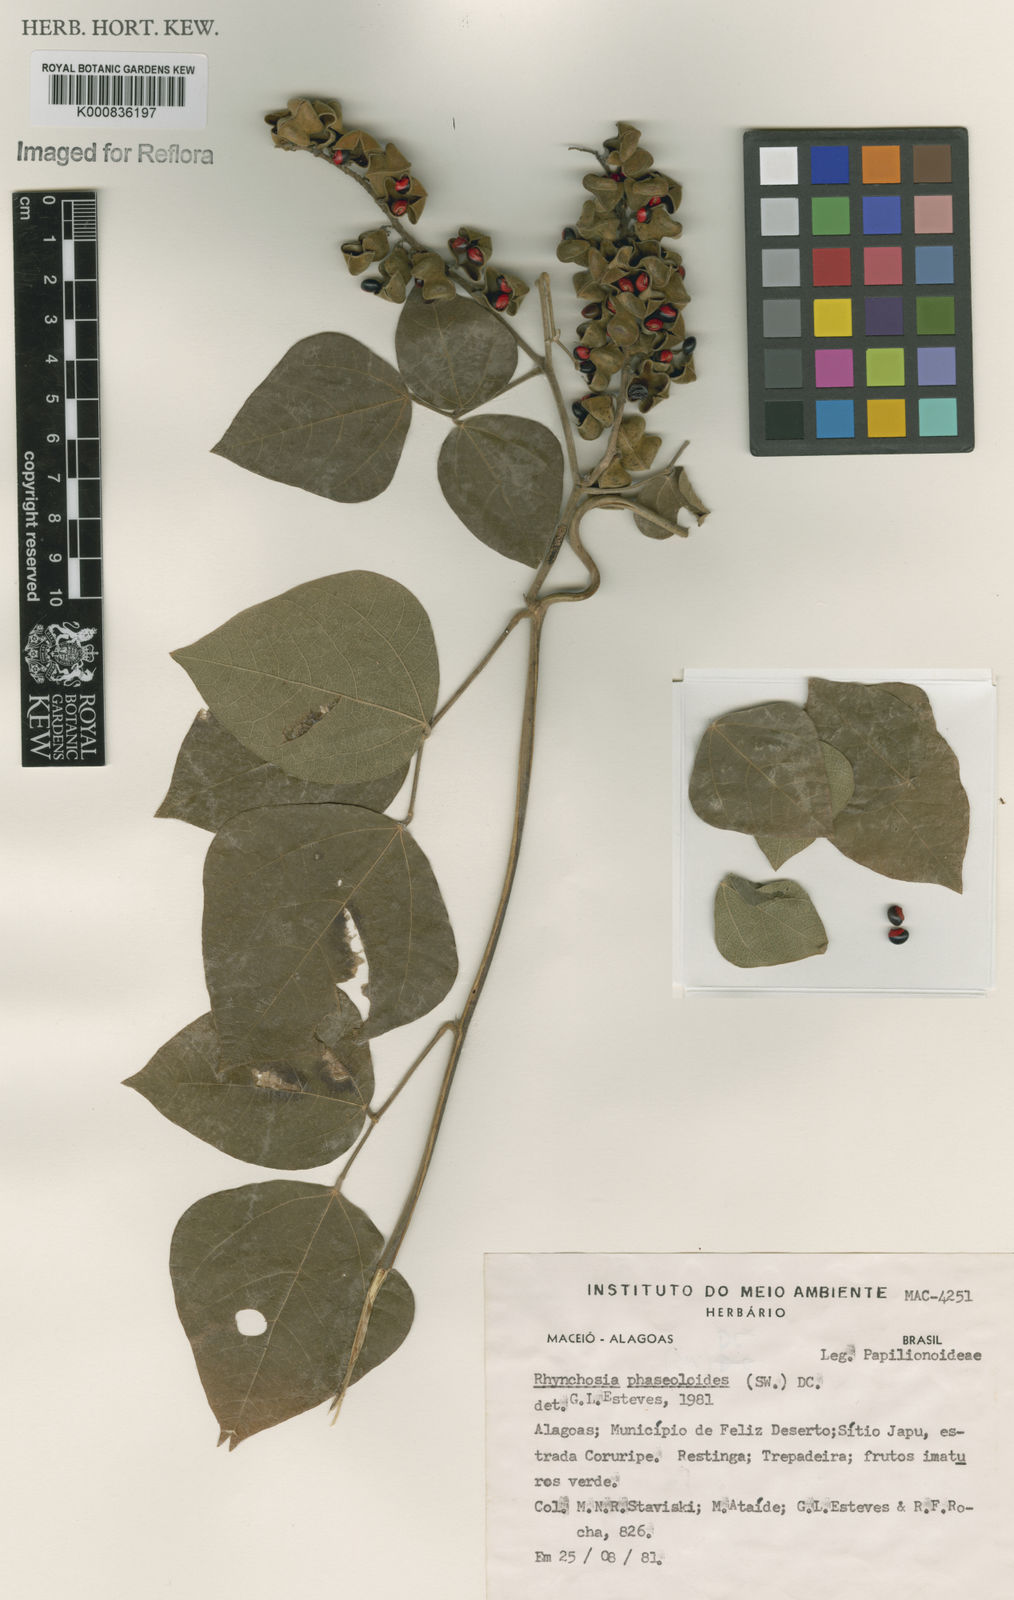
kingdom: Plantae
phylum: Tracheophyta
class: Magnoliopsida
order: Fabales
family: Fabaceae
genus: Rhynchosia
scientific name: Rhynchosia phaseoloides
